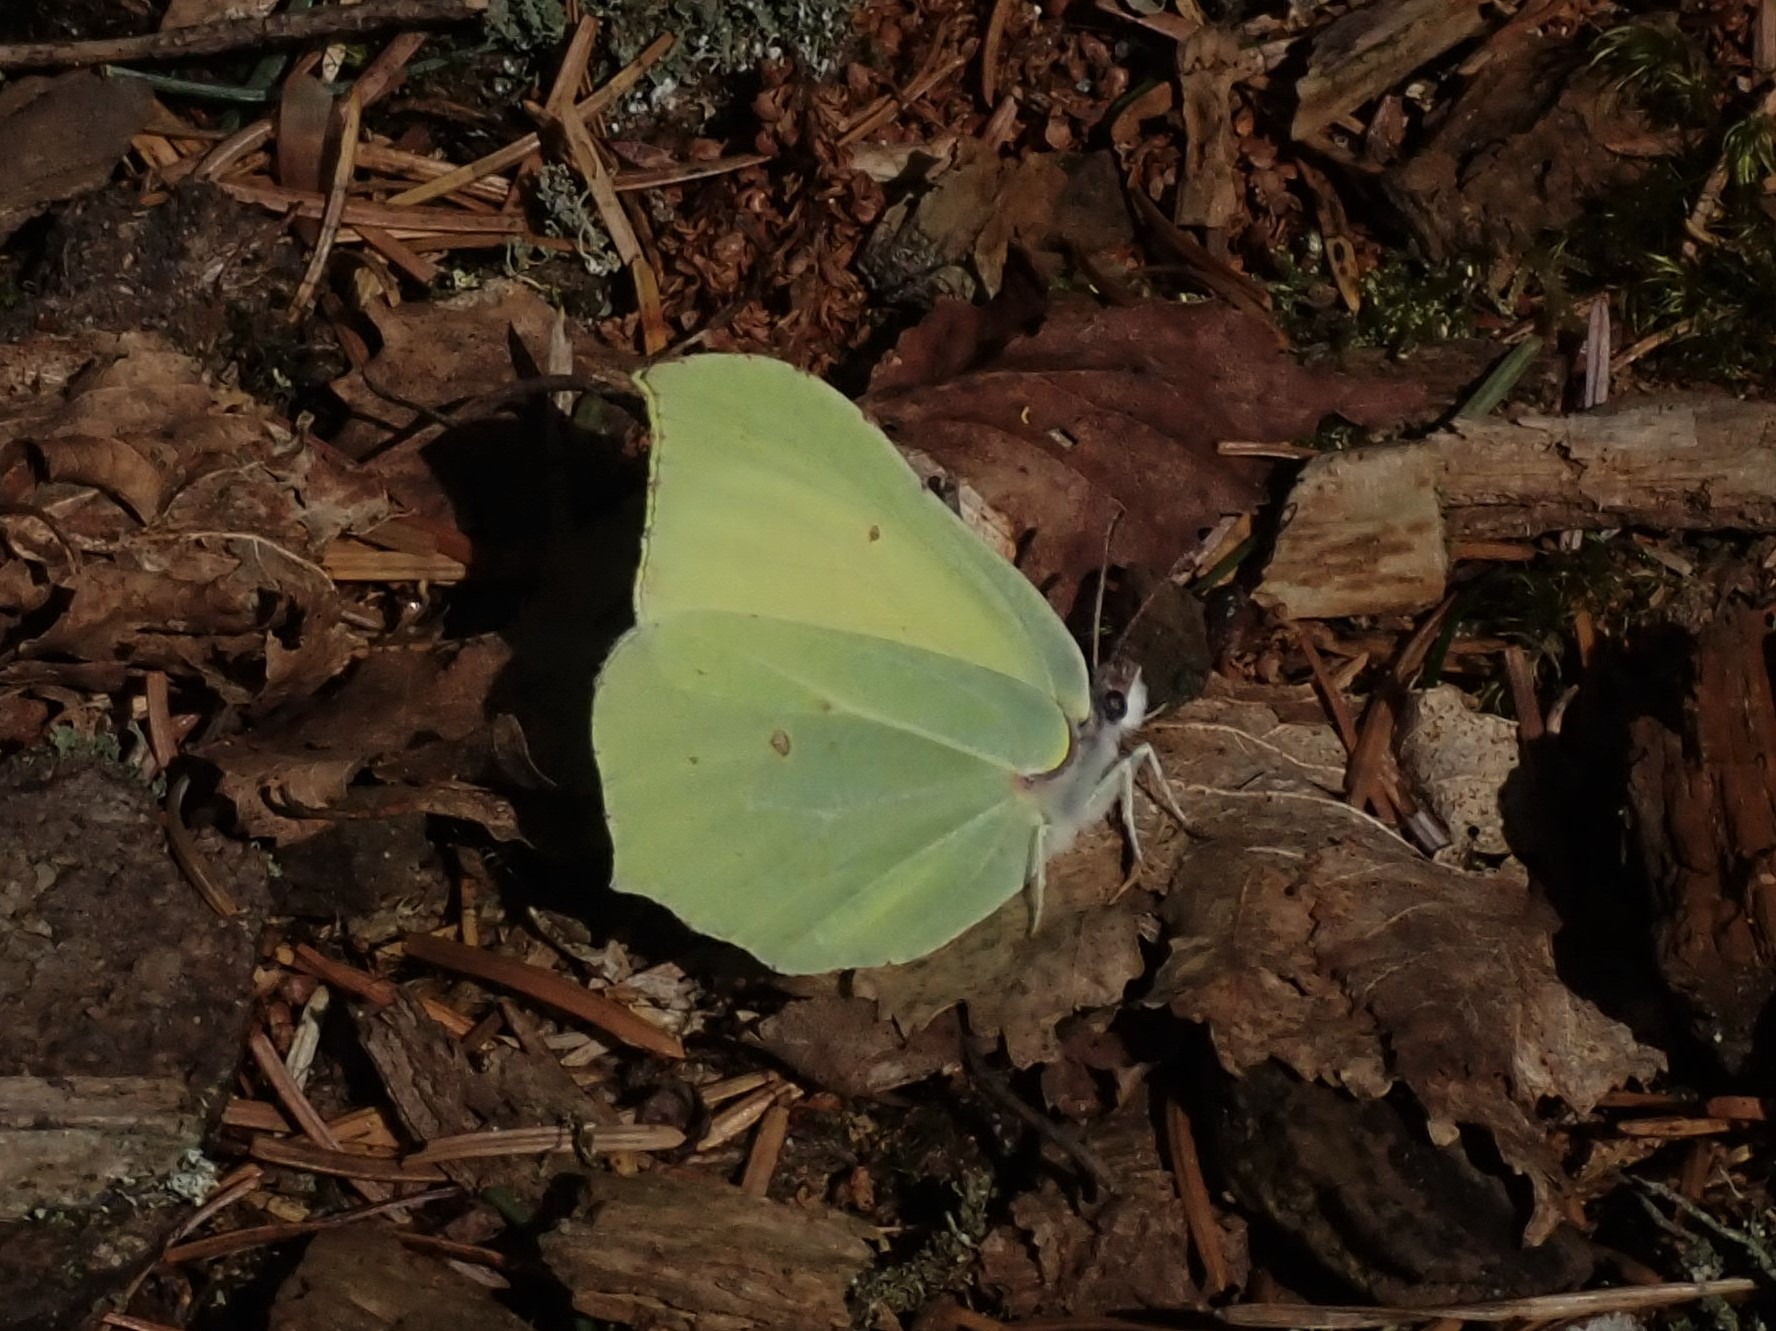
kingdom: Animalia
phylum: Arthropoda
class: Insecta
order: Lepidoptera
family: Pieridae
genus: Gonepteryx
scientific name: Gonepteryx rhamni
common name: Citronsommerfugl
